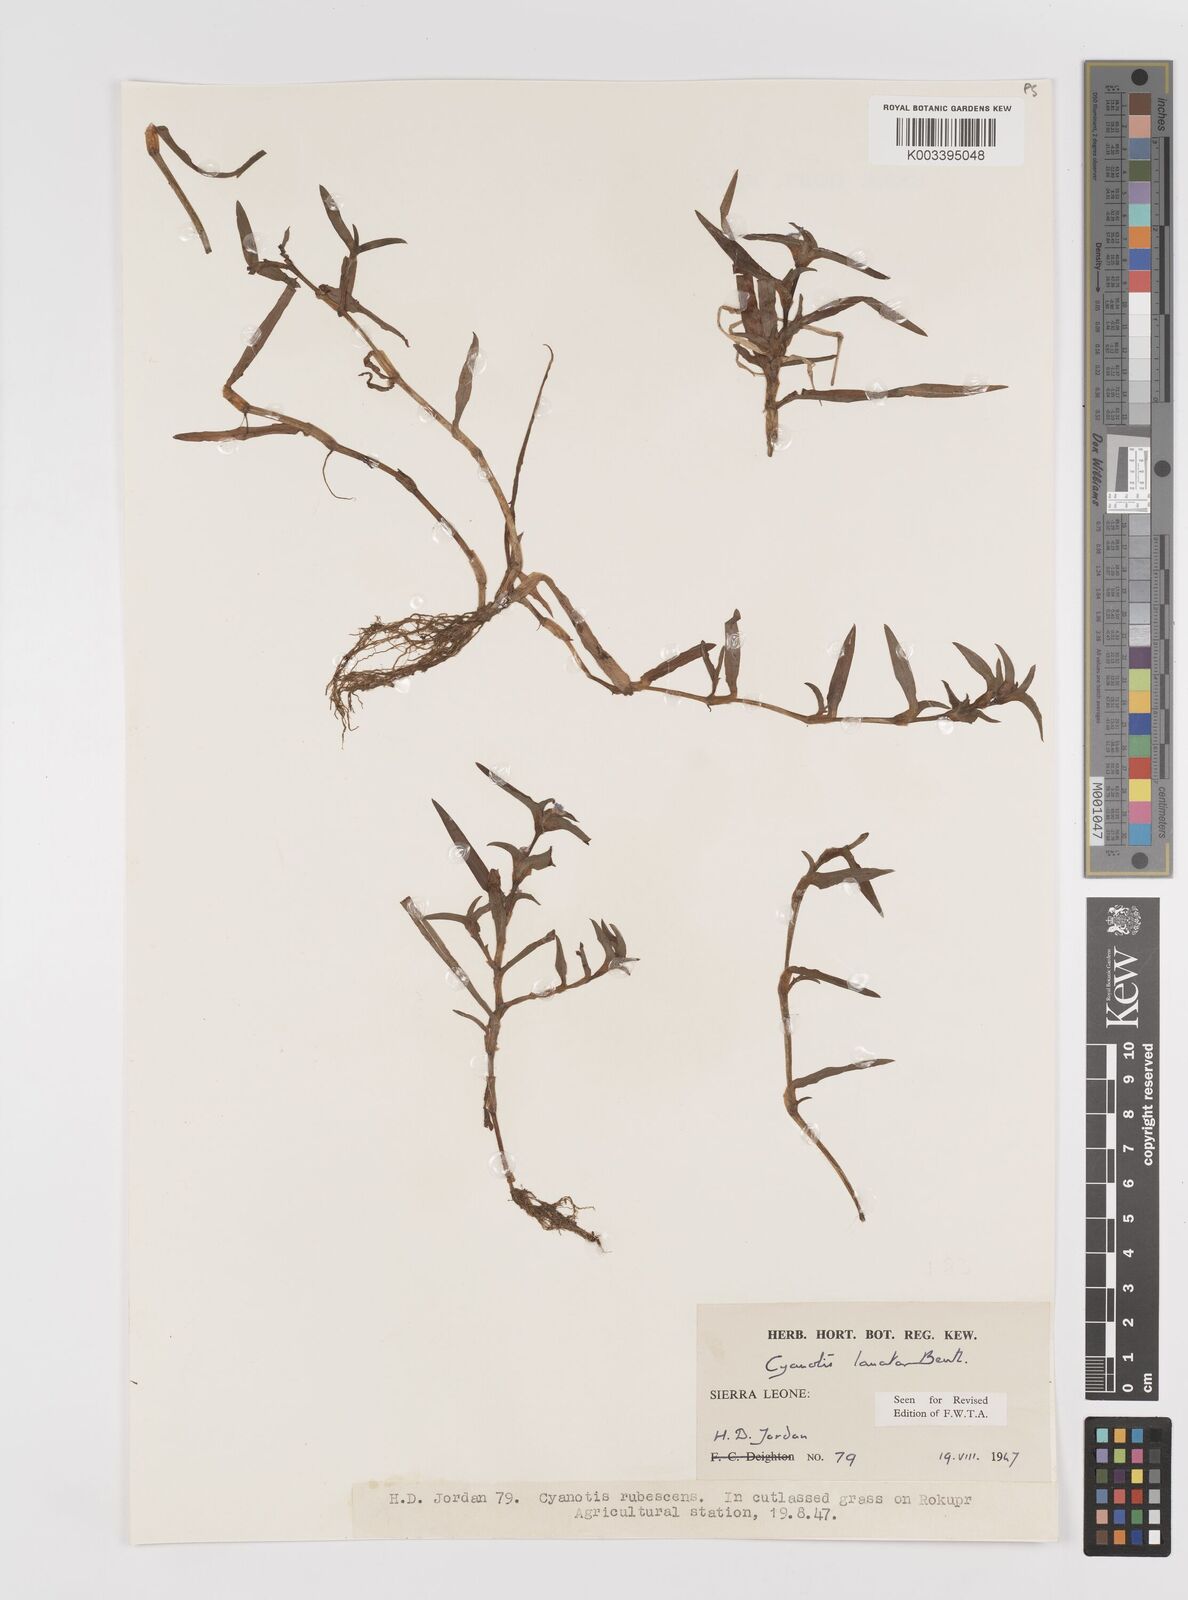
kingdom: Plantae
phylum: Tracheophyta
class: Liliopsida
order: Commelinales
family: Commelinaceae
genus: Cyanotis
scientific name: Cyanotis lanata
